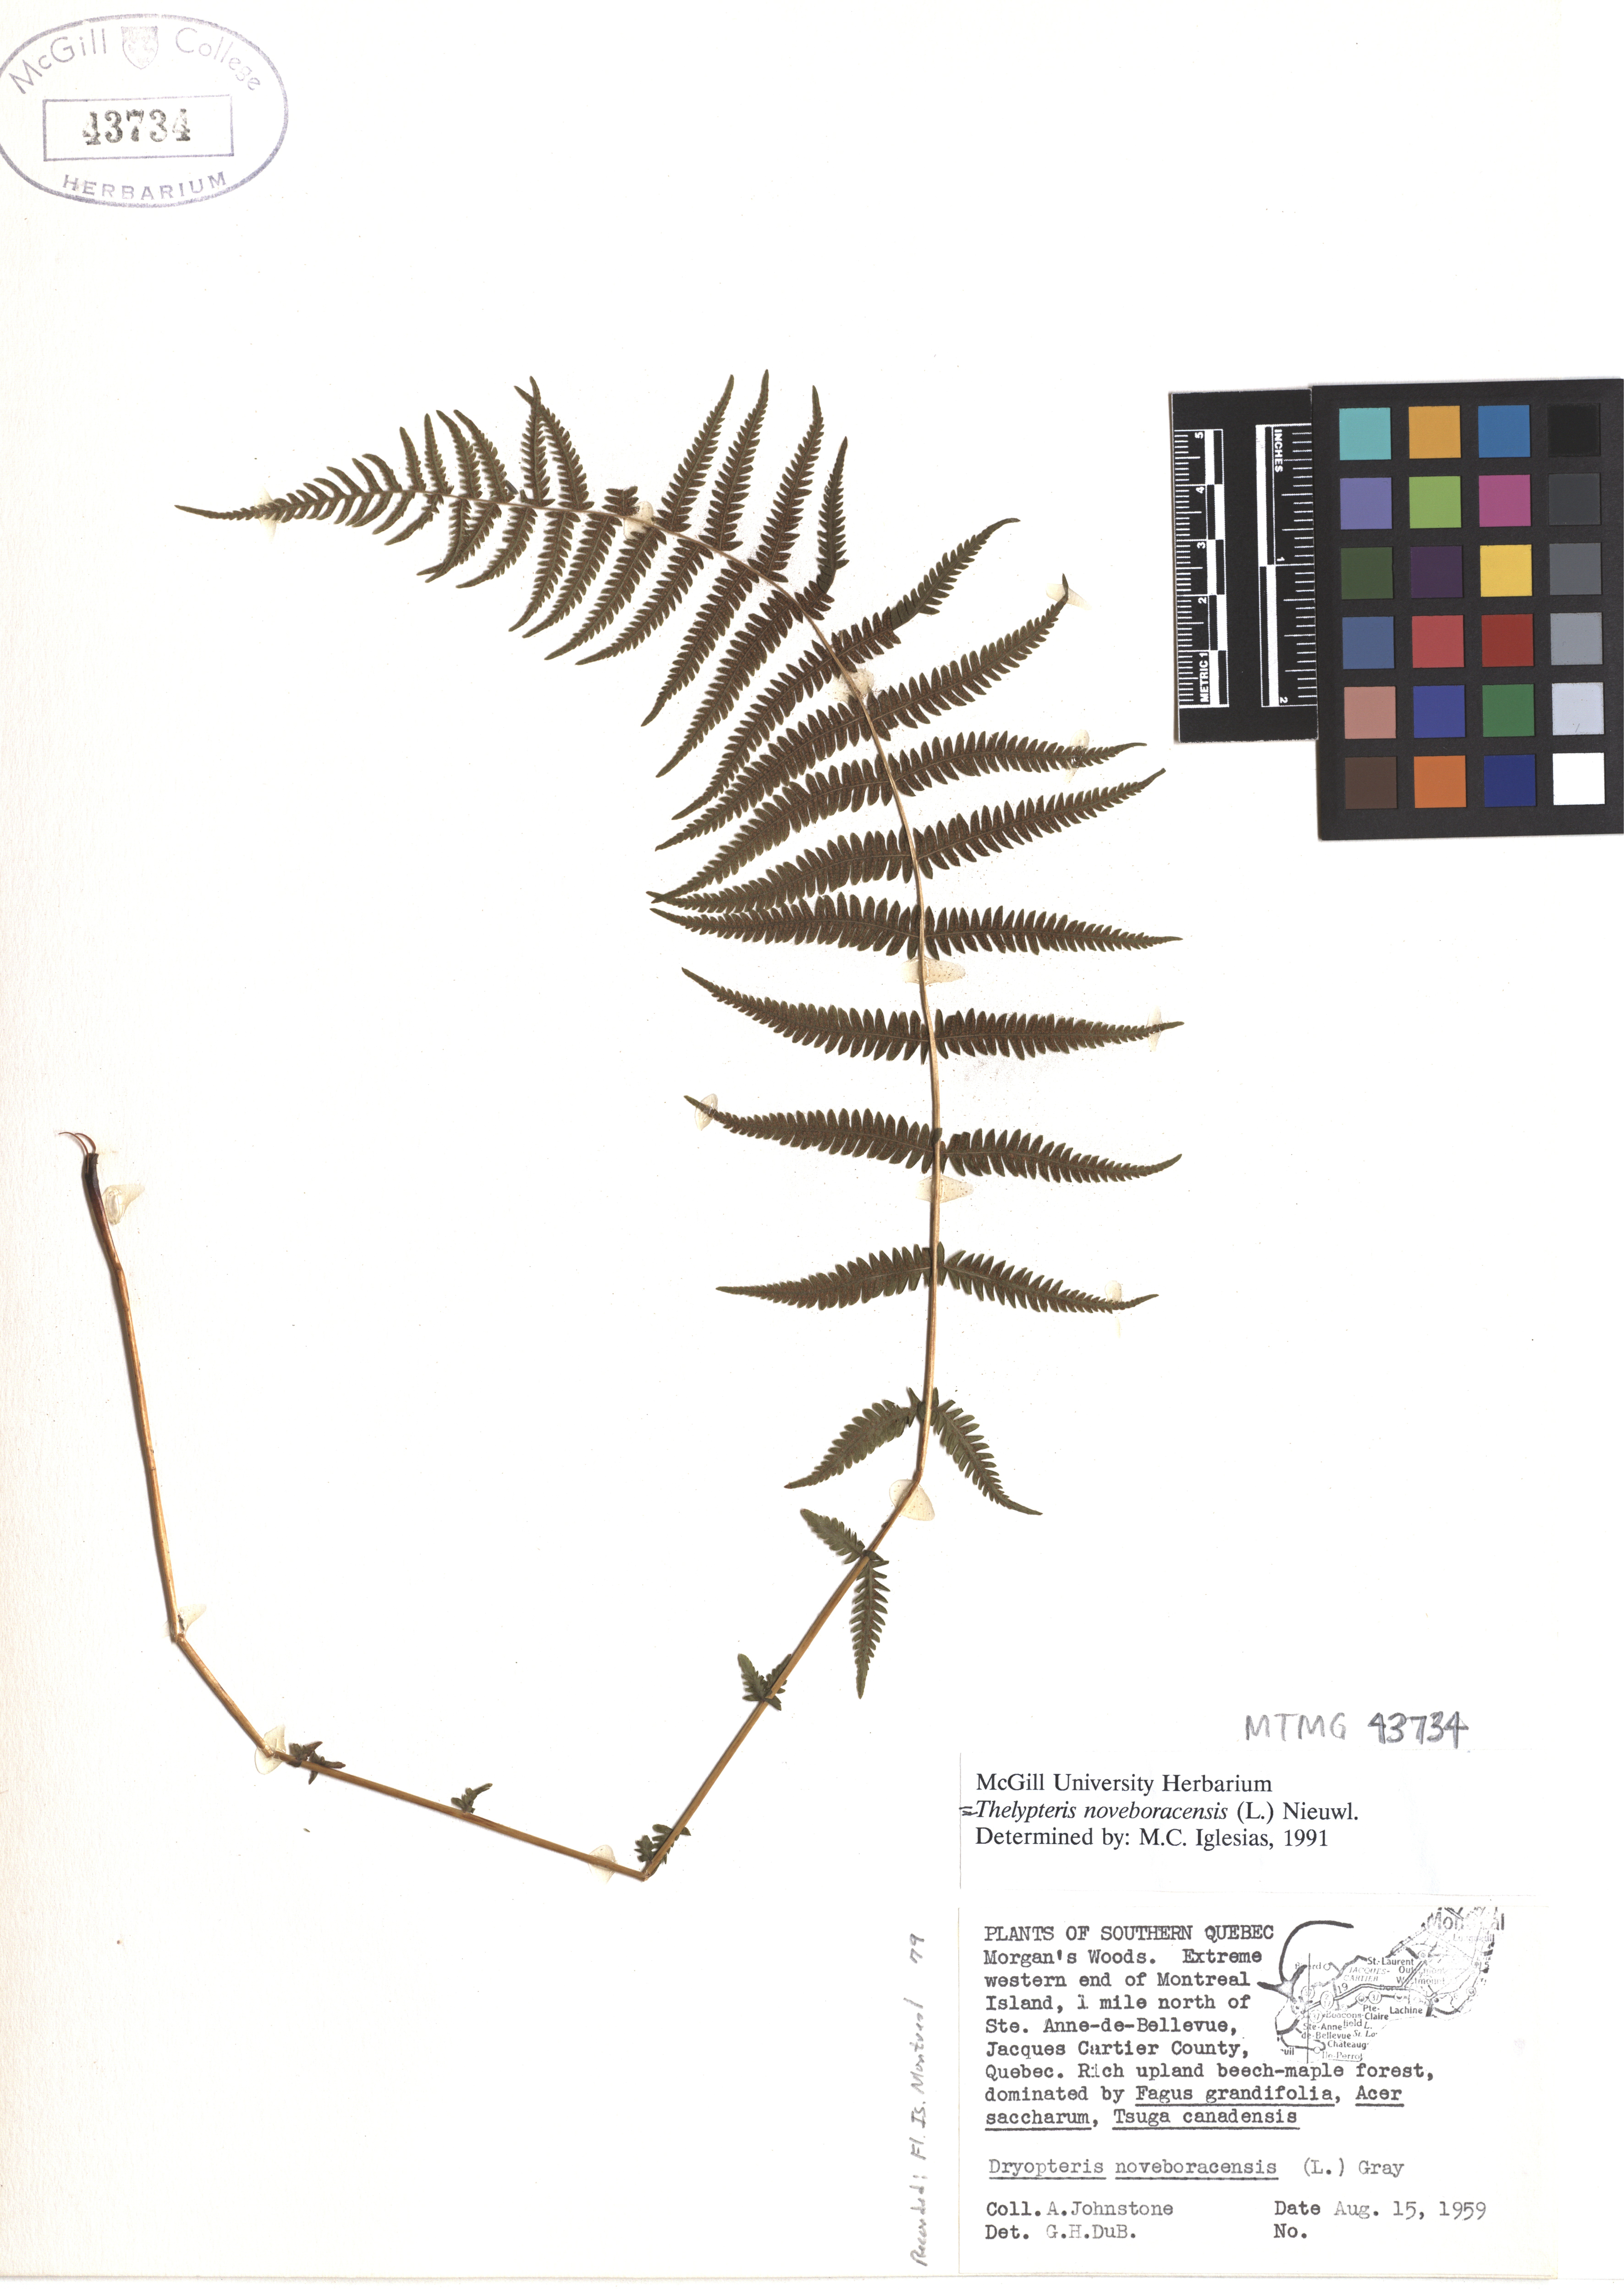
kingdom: Plantae
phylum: Tracheophyta
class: Polypodiopsida
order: Polypodiales
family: Thelypteridaceae
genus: Amauropelta
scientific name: Amauropelta noveboracensis
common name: New york fern
